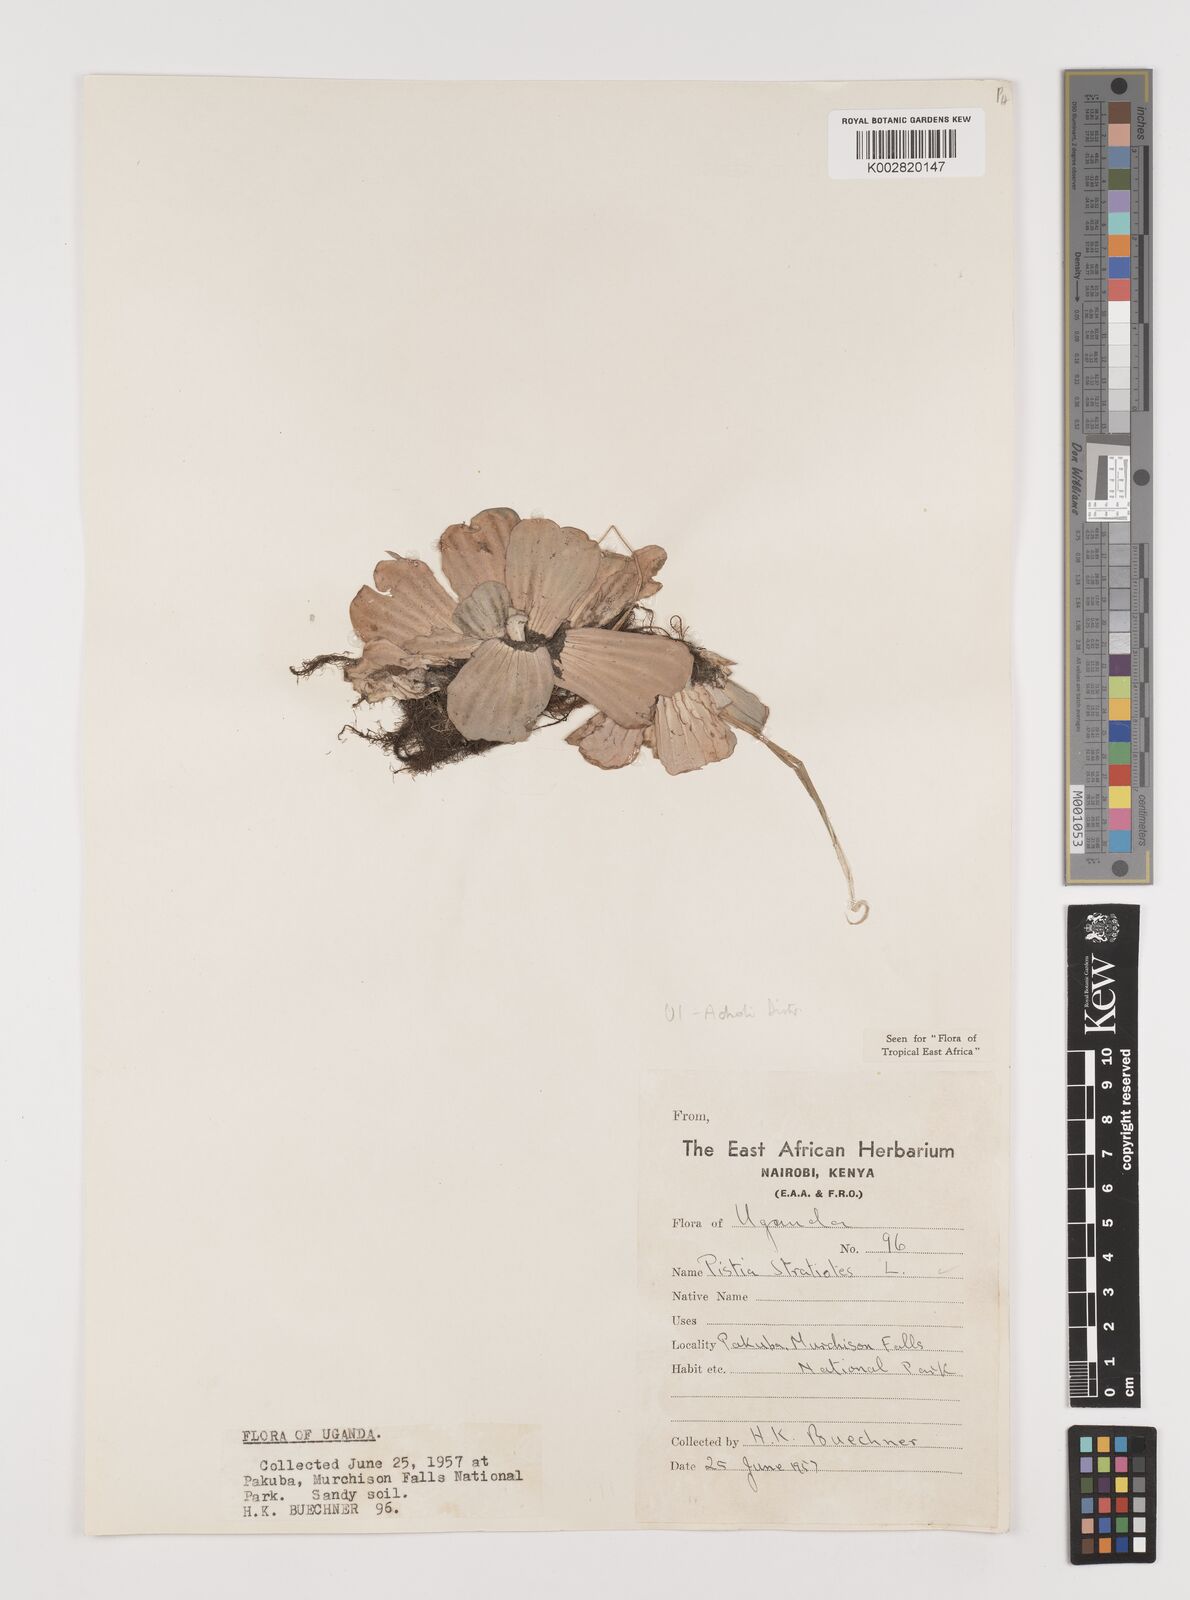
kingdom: Plantae
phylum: Tracheophyta
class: Liliopsida
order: Alismatales
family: Araceae
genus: Pistia
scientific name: Pistia stratiotes
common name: Water lettuce
